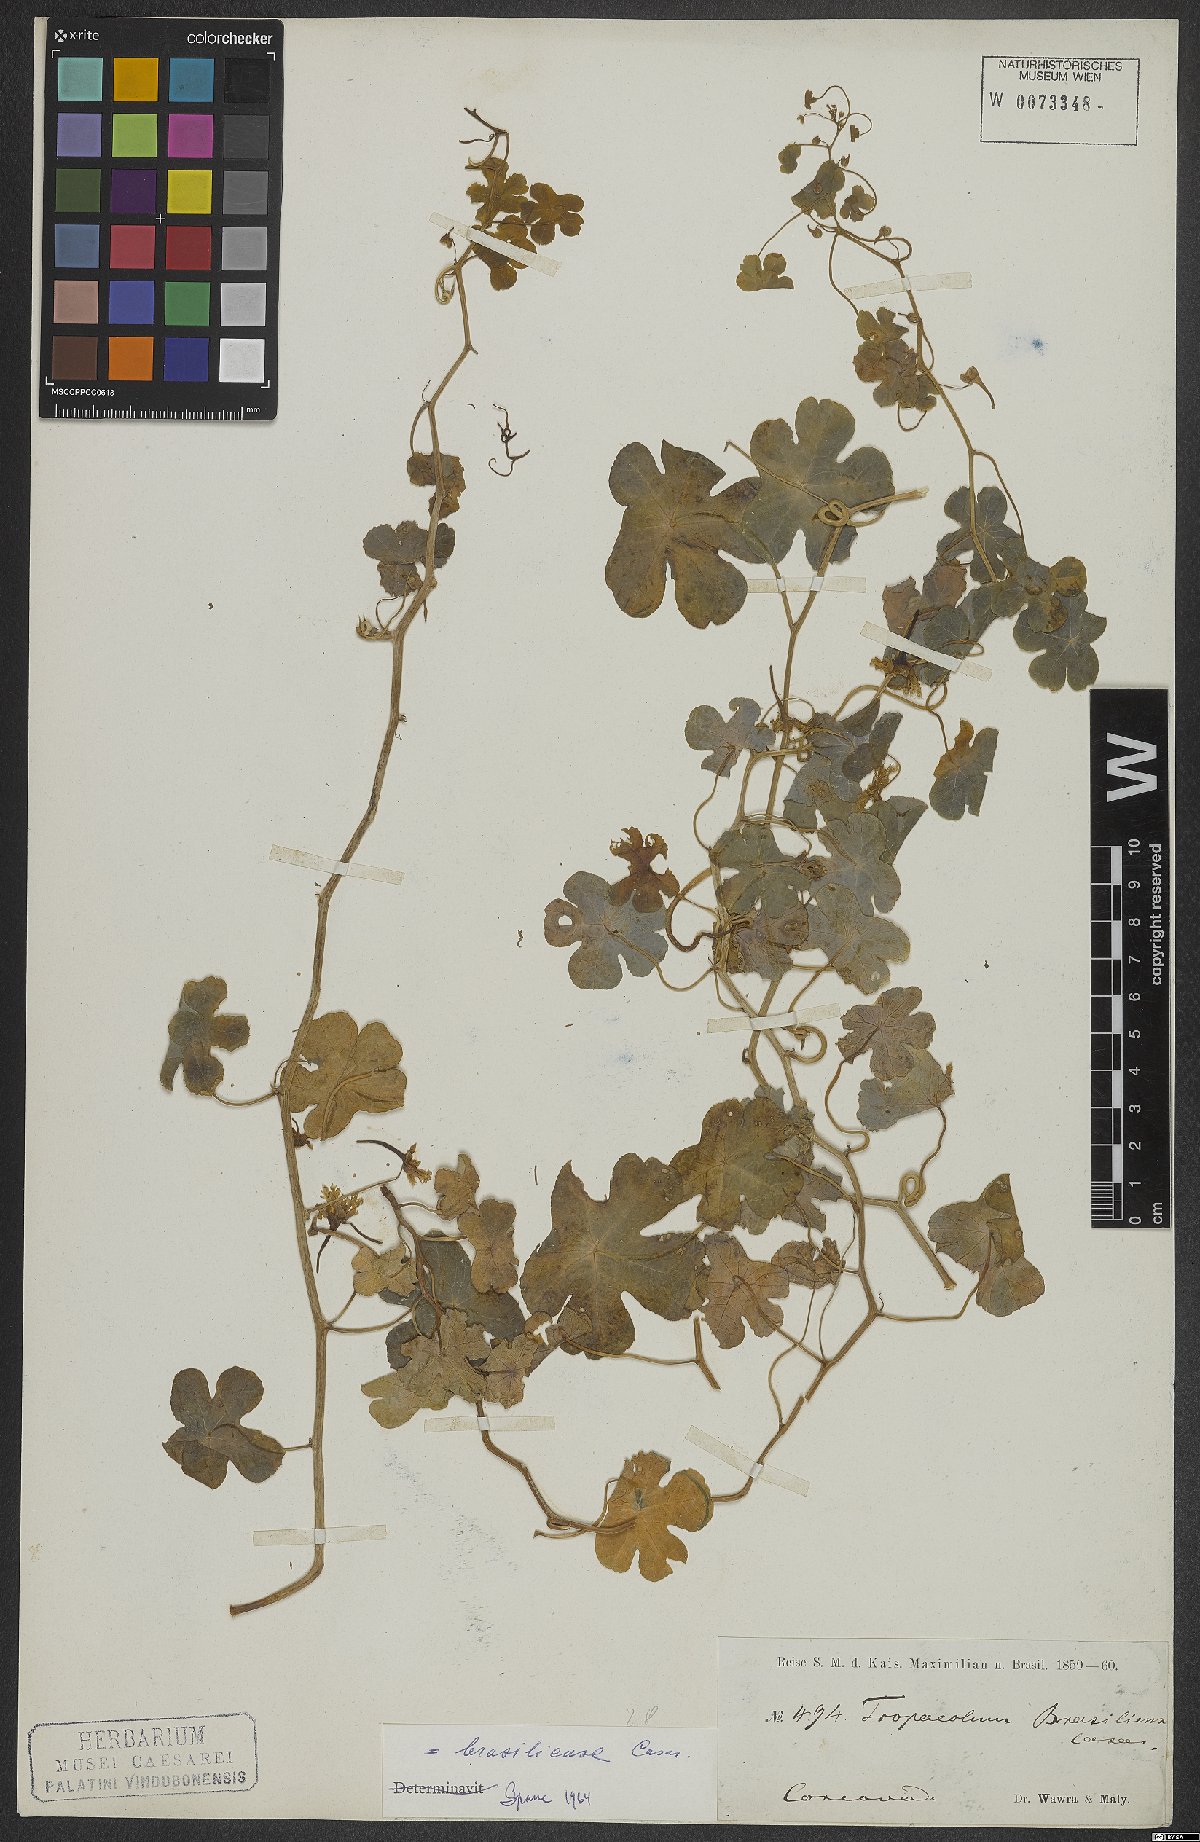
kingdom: Plantae
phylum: Tracheophyta
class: Magnoliopsida
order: Brassicales
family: Tropaeolaceae
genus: Tropaeolum
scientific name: Tropaeolum brasiliense
